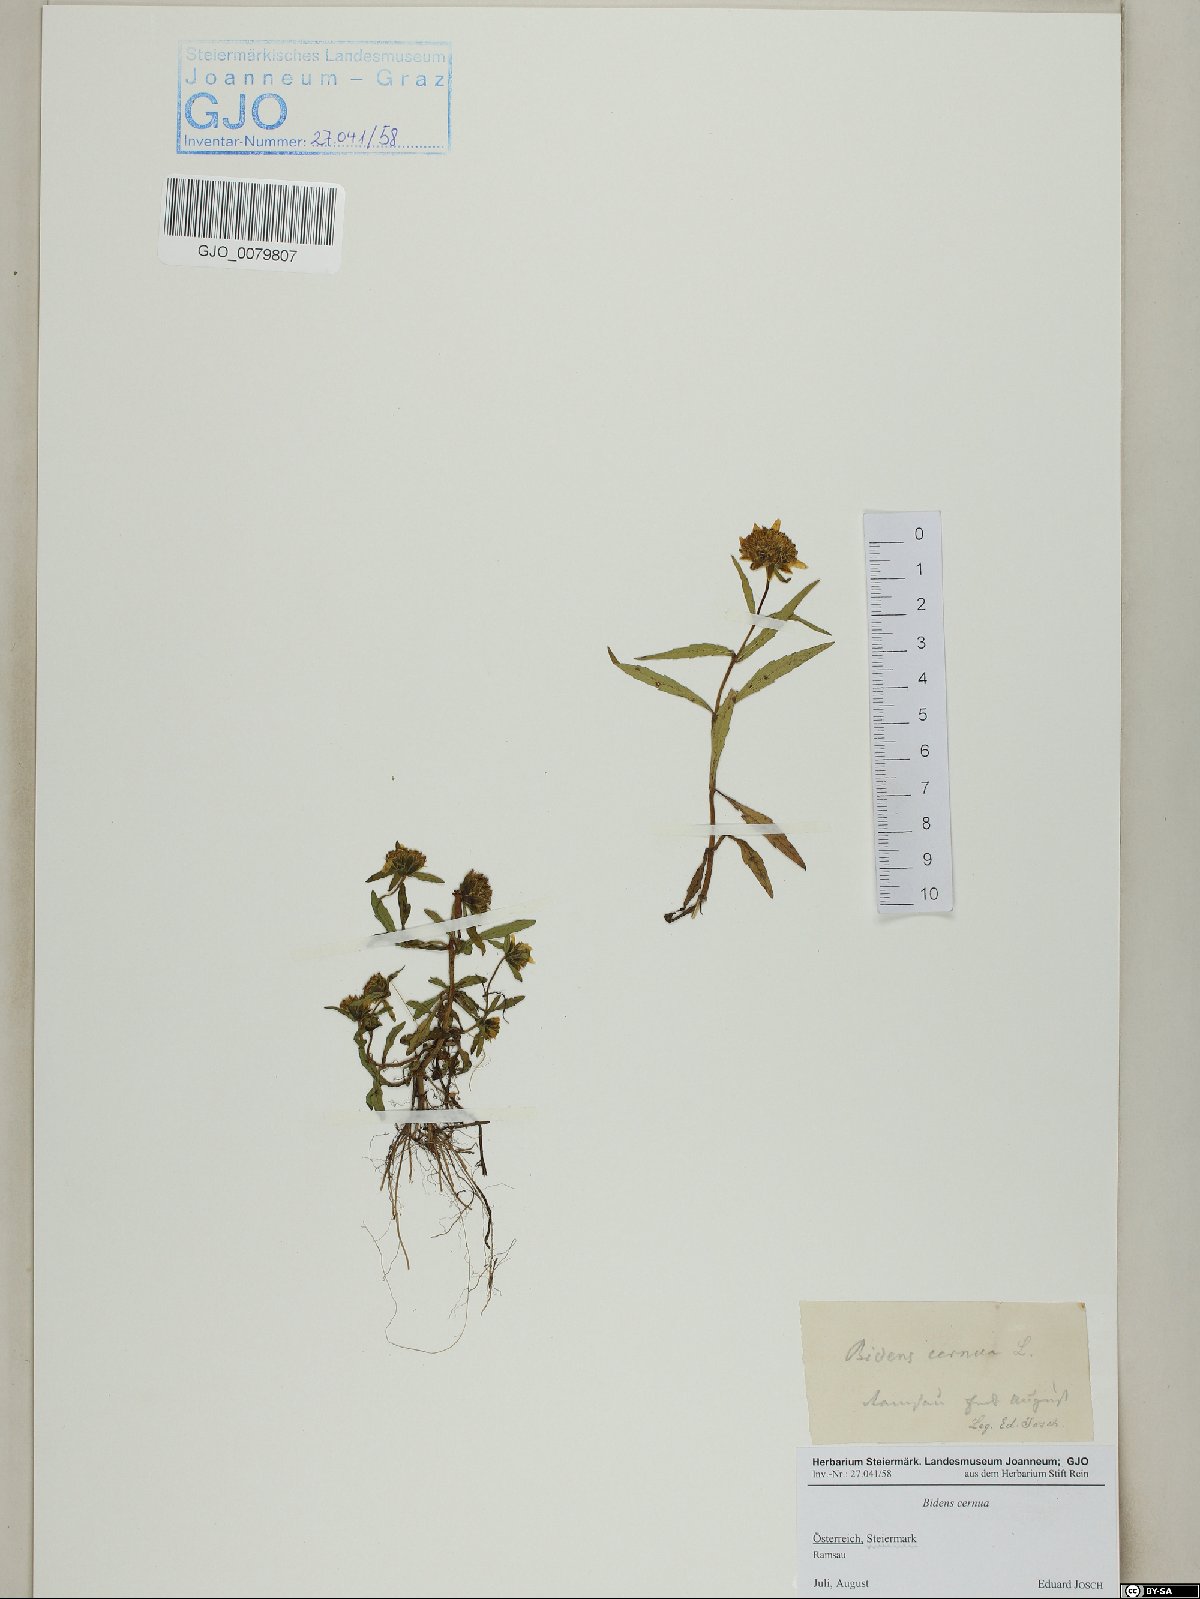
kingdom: Plantae
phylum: Tracheophyta
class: Magnoliopsida
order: Asterales
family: Asteraceae
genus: Erigeron
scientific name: Erigeron glabratus
